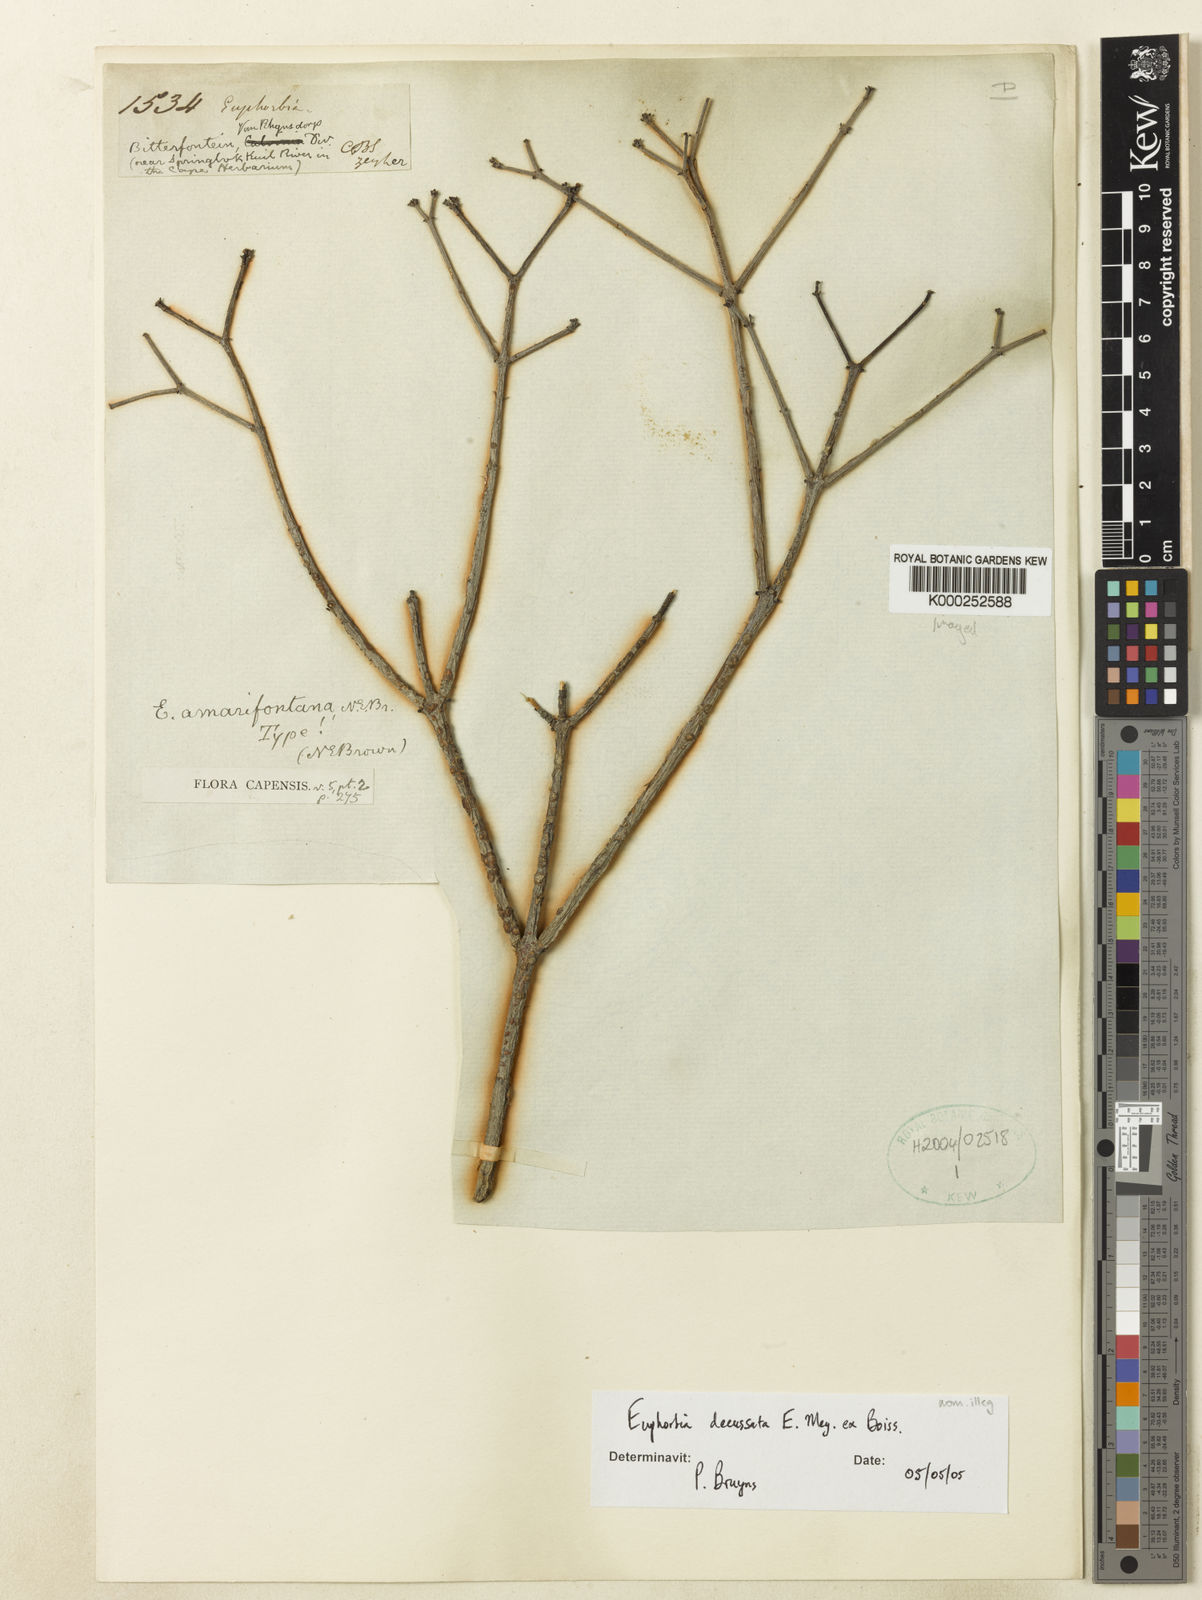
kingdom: Plantae
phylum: Tracheophyta
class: Magnoliopsida
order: Malpighiales
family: Euphorbiaceae
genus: Euphorbia
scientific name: Euphorbia rhombifolia
